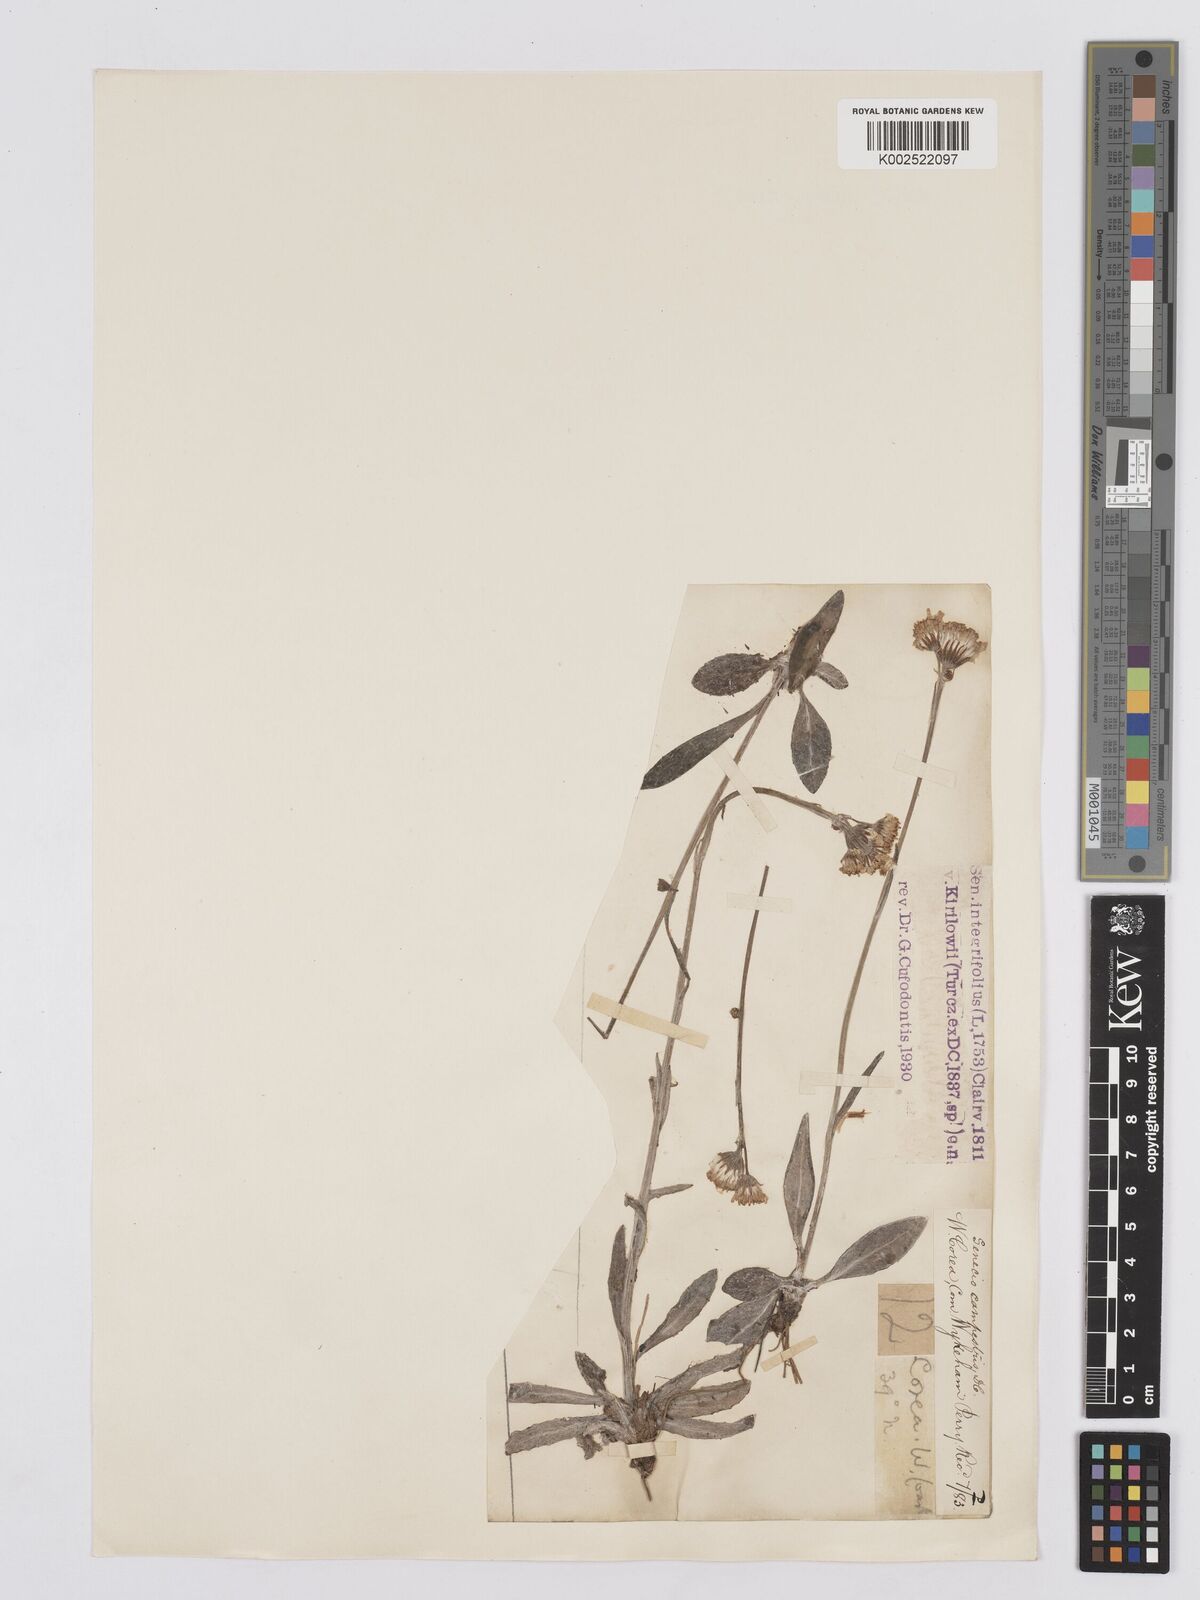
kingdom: Plantae
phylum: Tracheophyta
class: Magnoliopsida
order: Asterales
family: Asteraceae
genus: Tephroseris
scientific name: Tephroseris kirilowii
